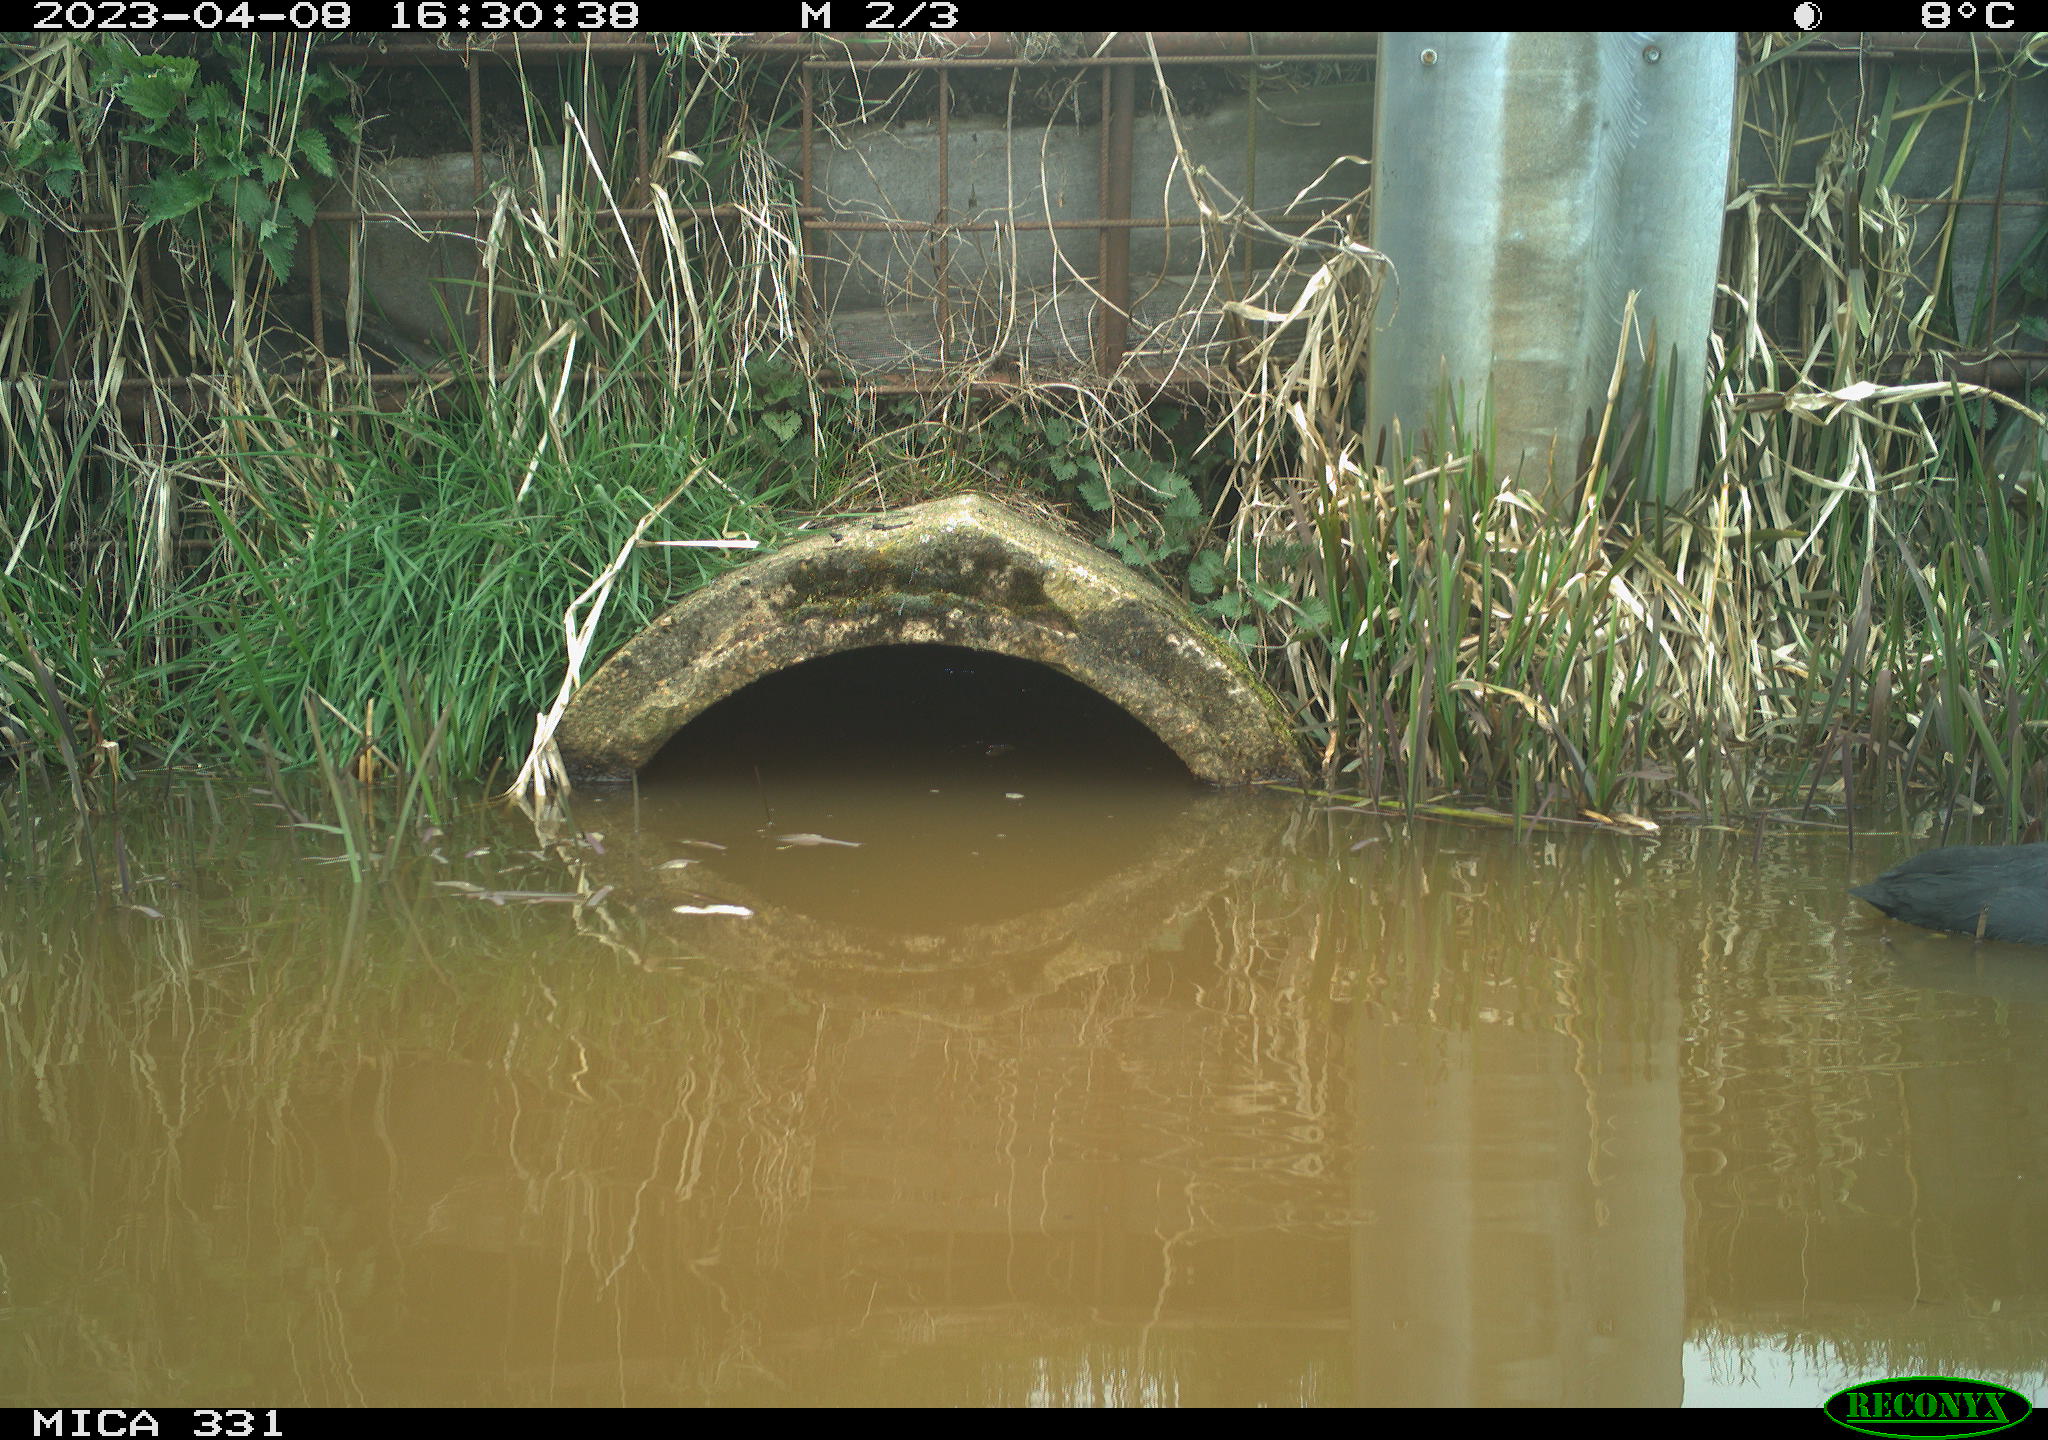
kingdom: Animalia
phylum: Chordata
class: Aves
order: Gruiformes
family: Rallidae
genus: Fulica
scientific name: Fulica atra
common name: Eurasian coot
